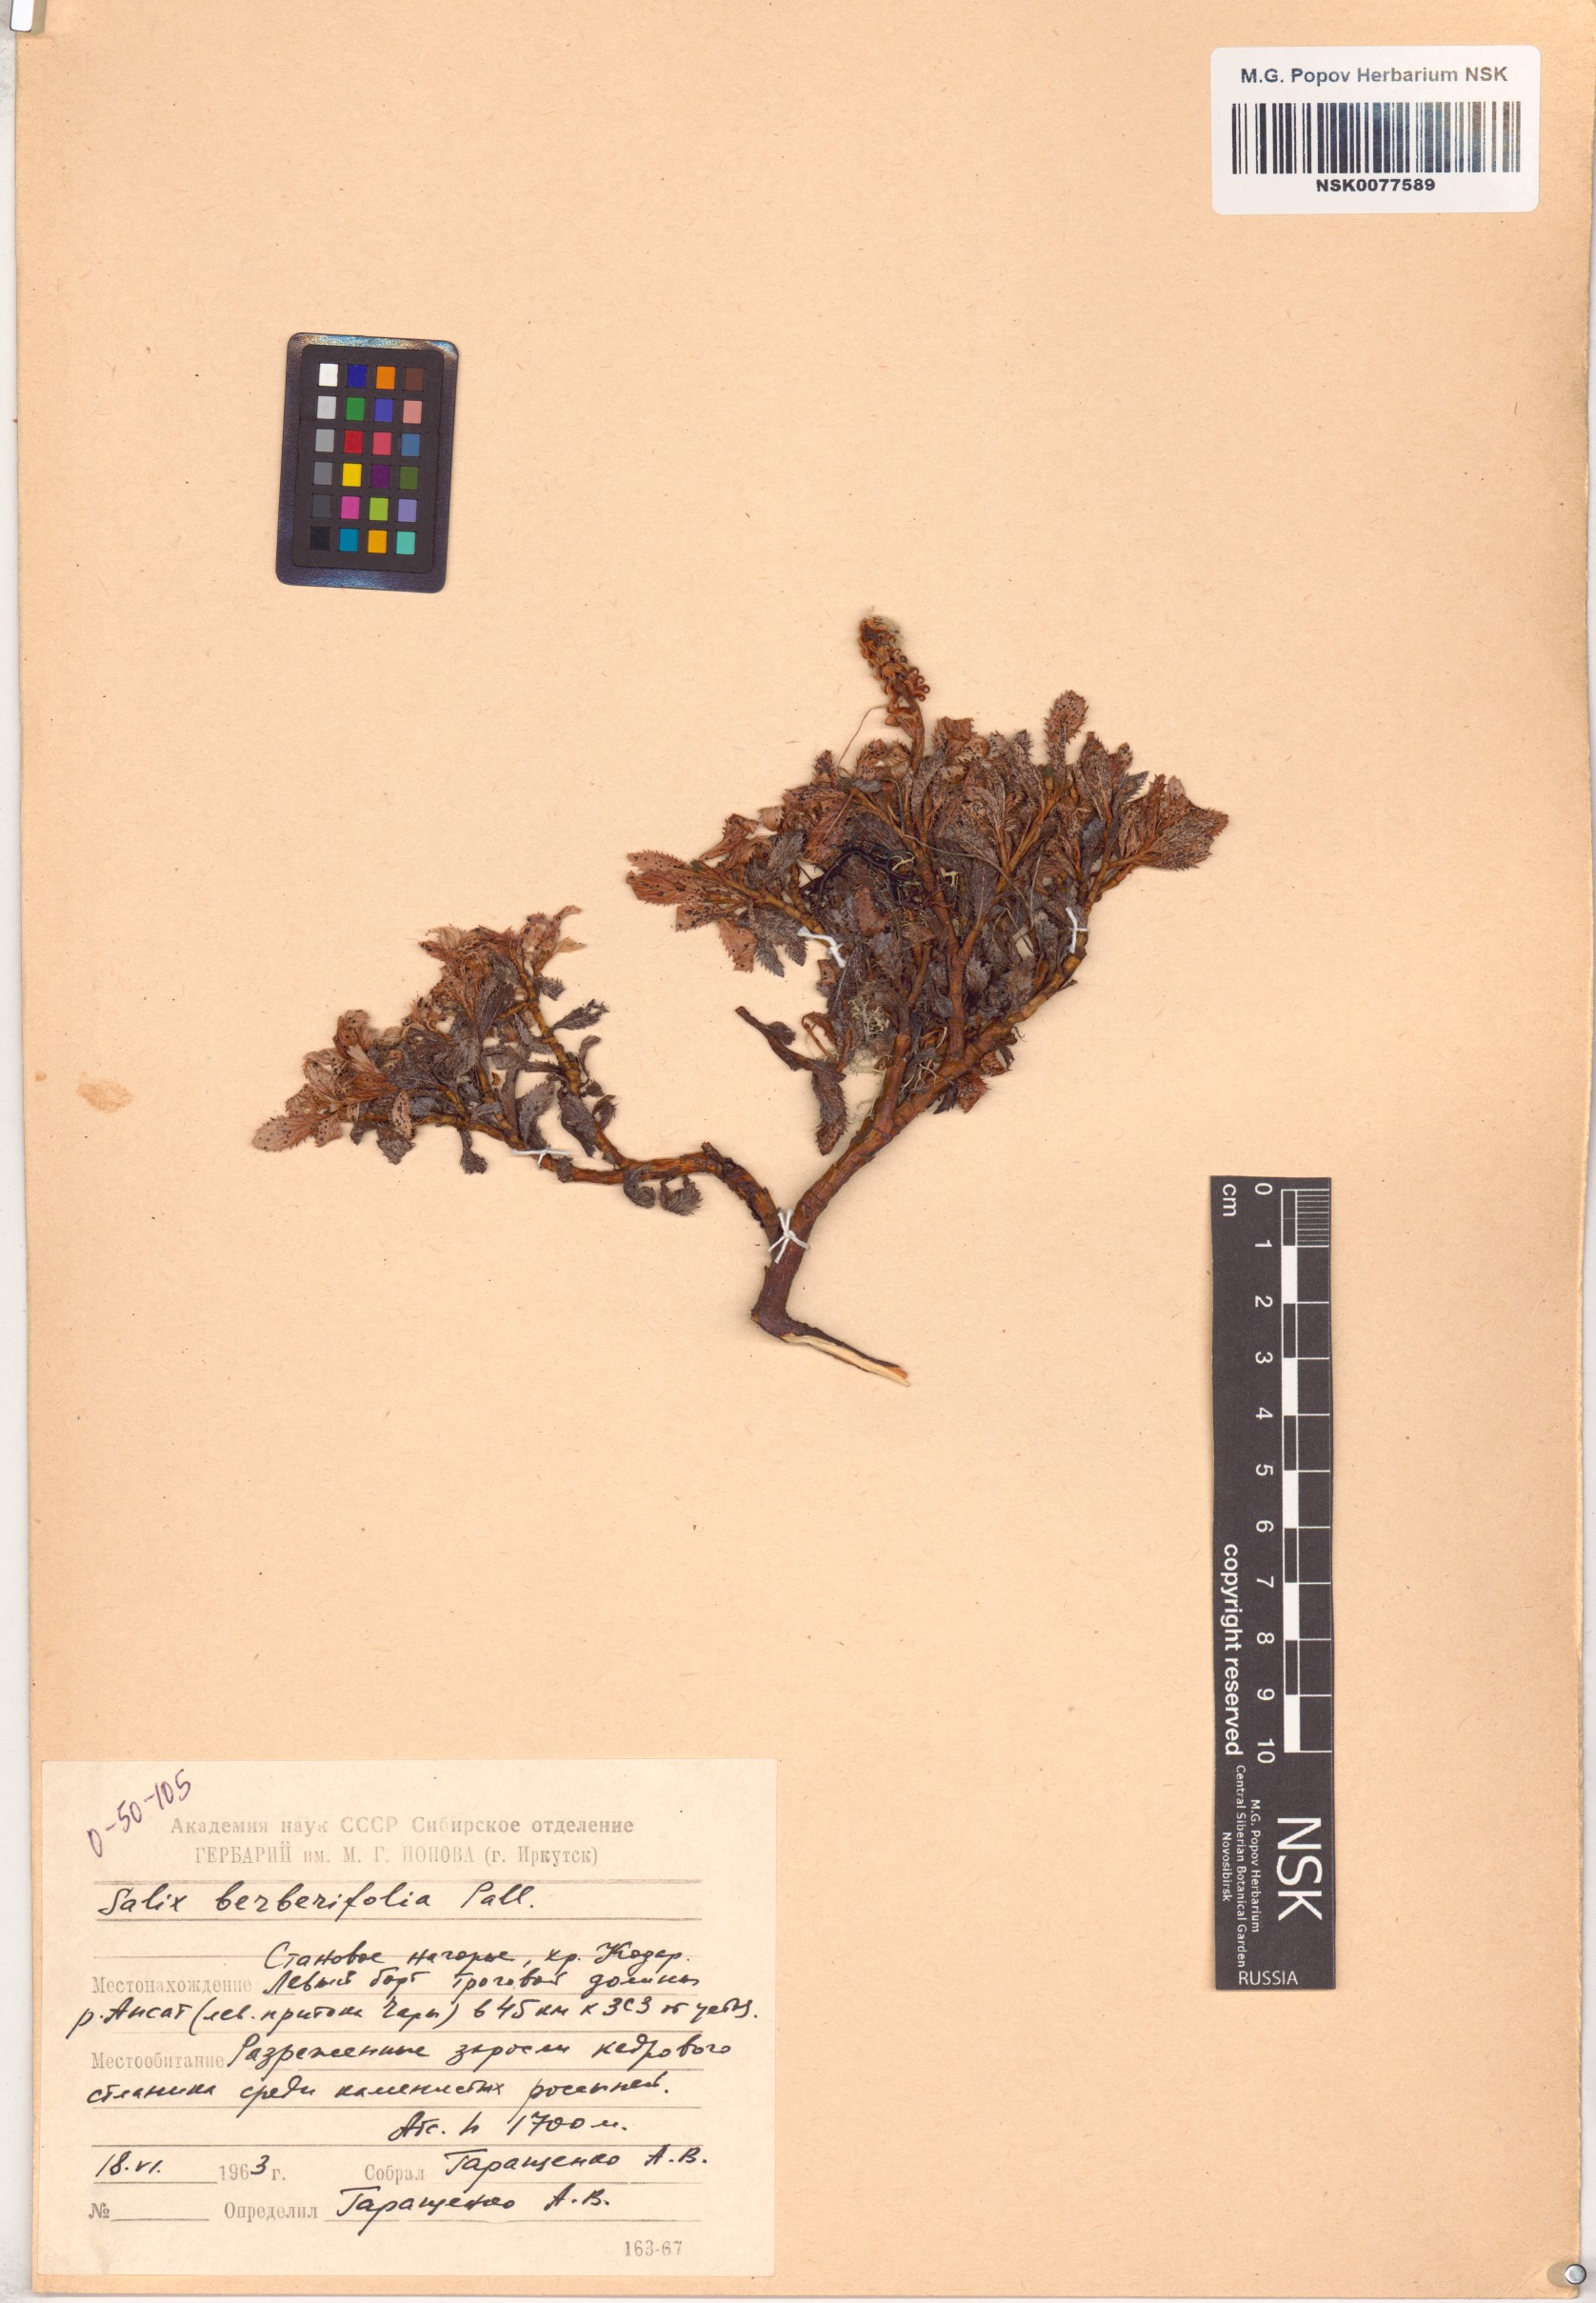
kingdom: Plantae
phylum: Tracheophyta
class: Magnoliopsida
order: Malpighiales
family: Salicaceae
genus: Salix
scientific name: Salix berberifolia
